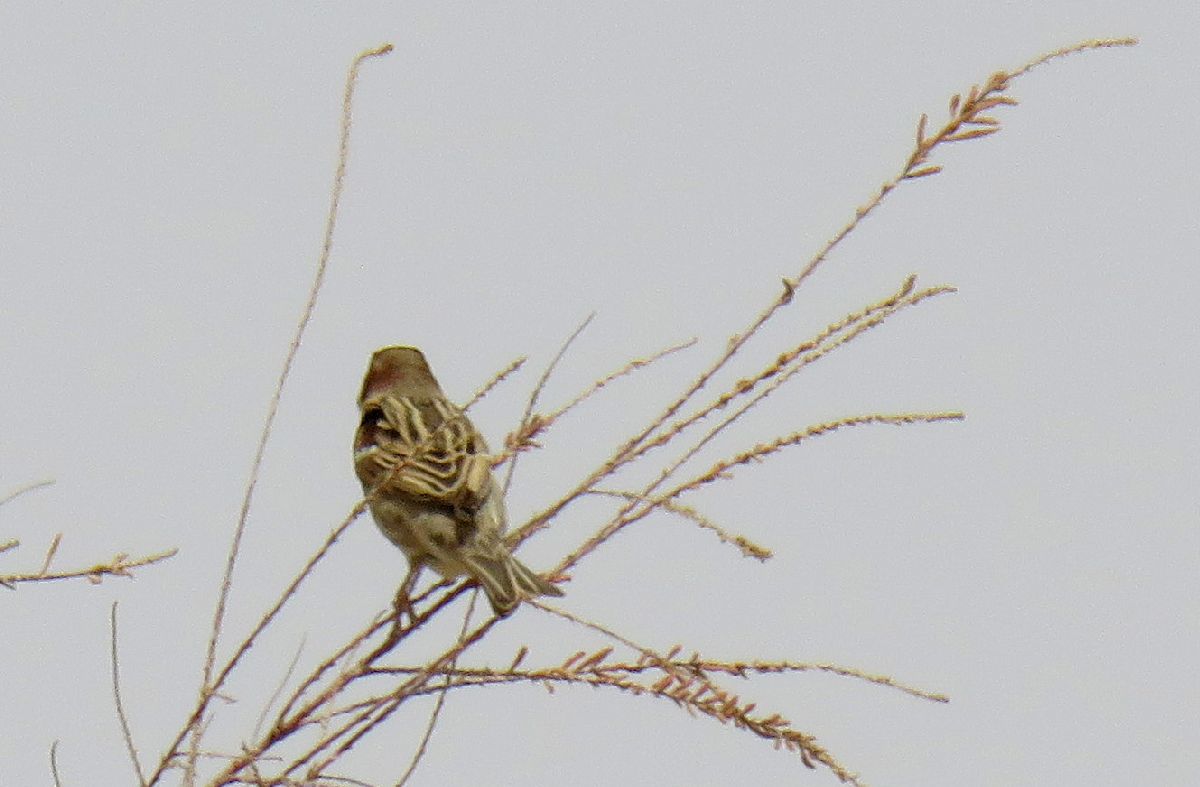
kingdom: Animalia
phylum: Chordata
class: Aves
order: Passeriformes
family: Passeridae
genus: Passer
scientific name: Passer hispaniolensis
